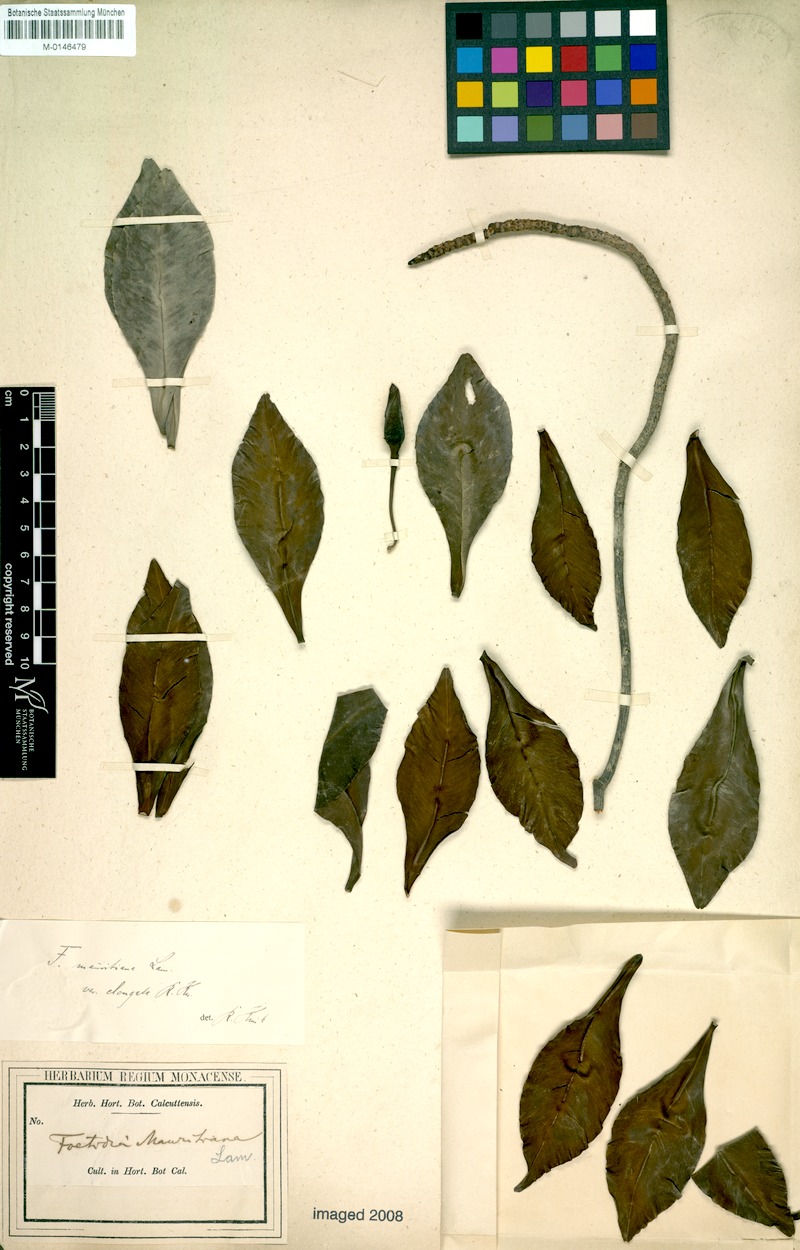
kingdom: Plantae
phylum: Tracheophyta
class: Magnoliopsida
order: Ericales
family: Lecythidaceae
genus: Foetidia
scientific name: Foetidia mauritiana
